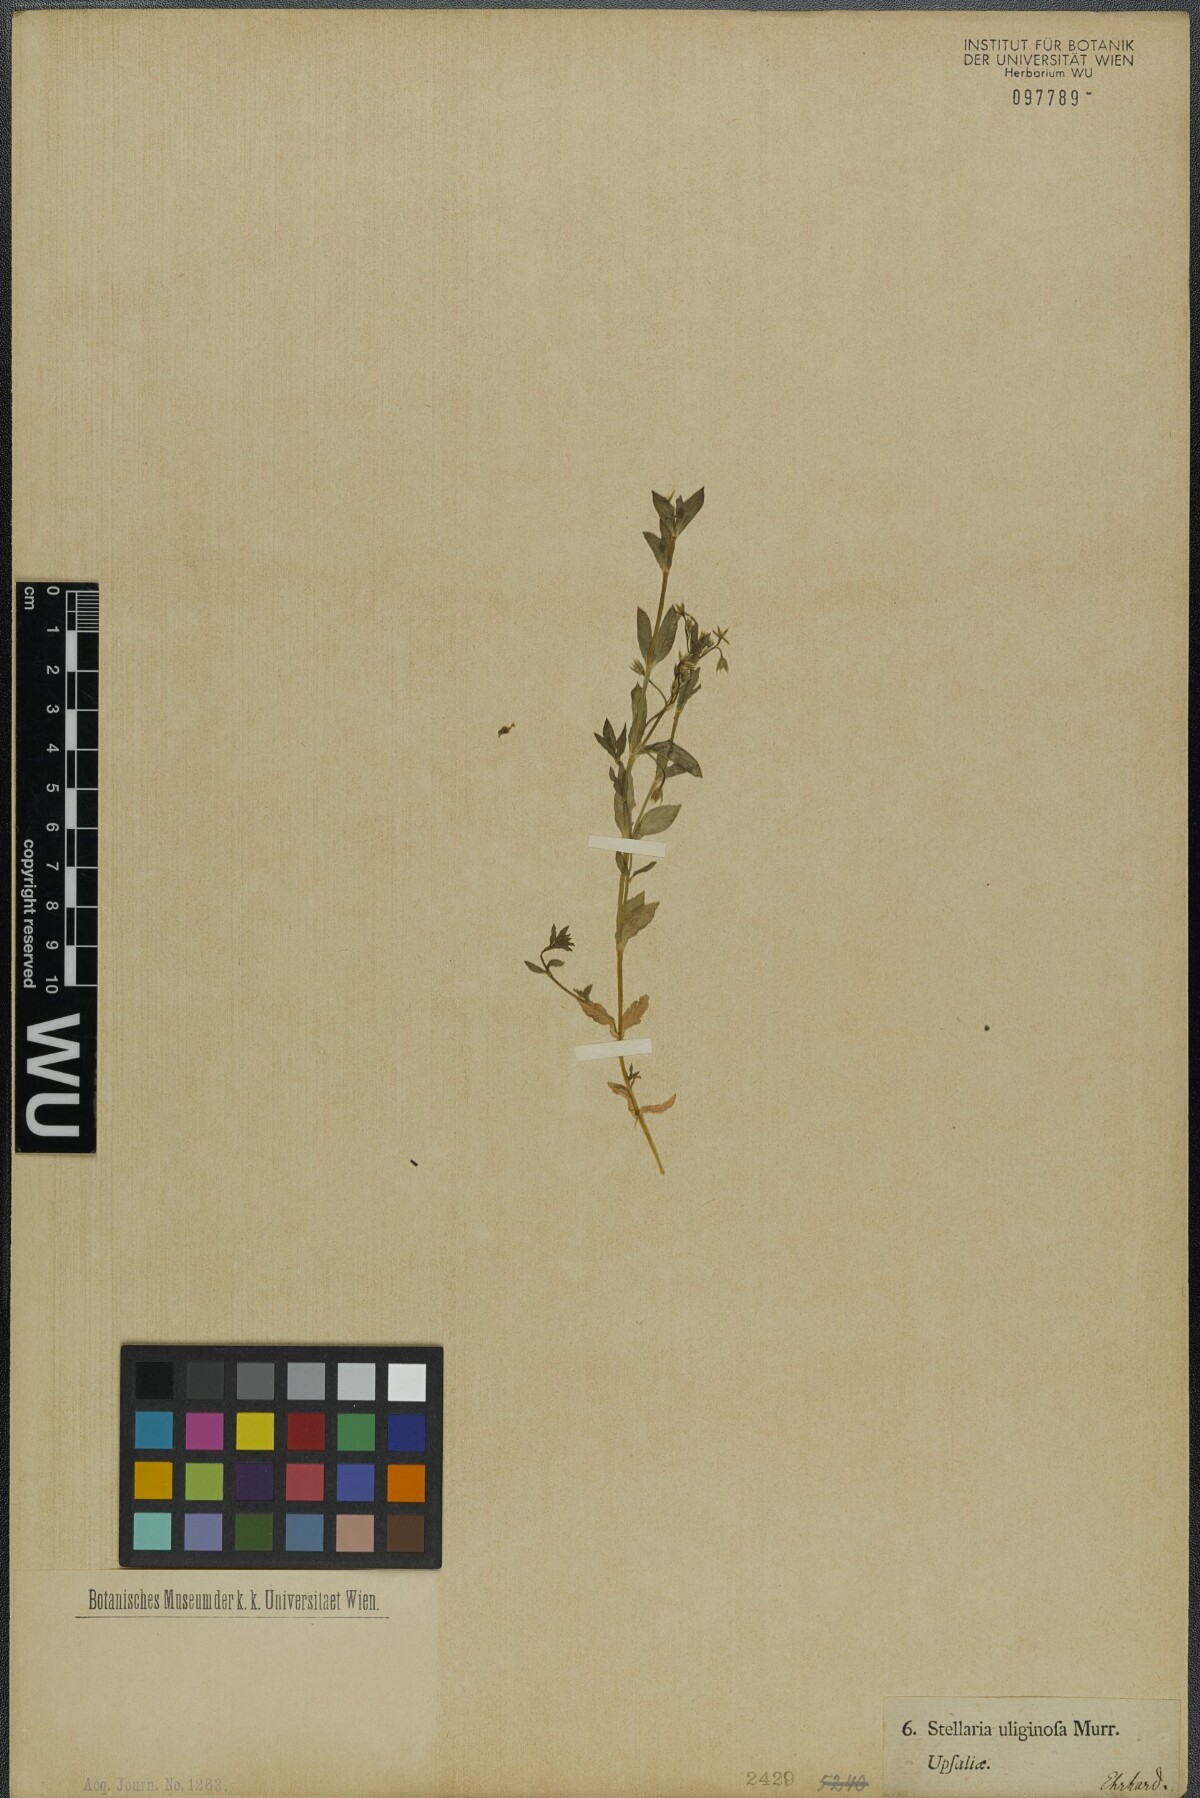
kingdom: Plantae
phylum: Tracheophyta
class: Magnoliopsida
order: Caryophyllales
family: Caryophyllaceae
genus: Stellaria
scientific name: Stellaria alsine
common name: Bog stitchwort
